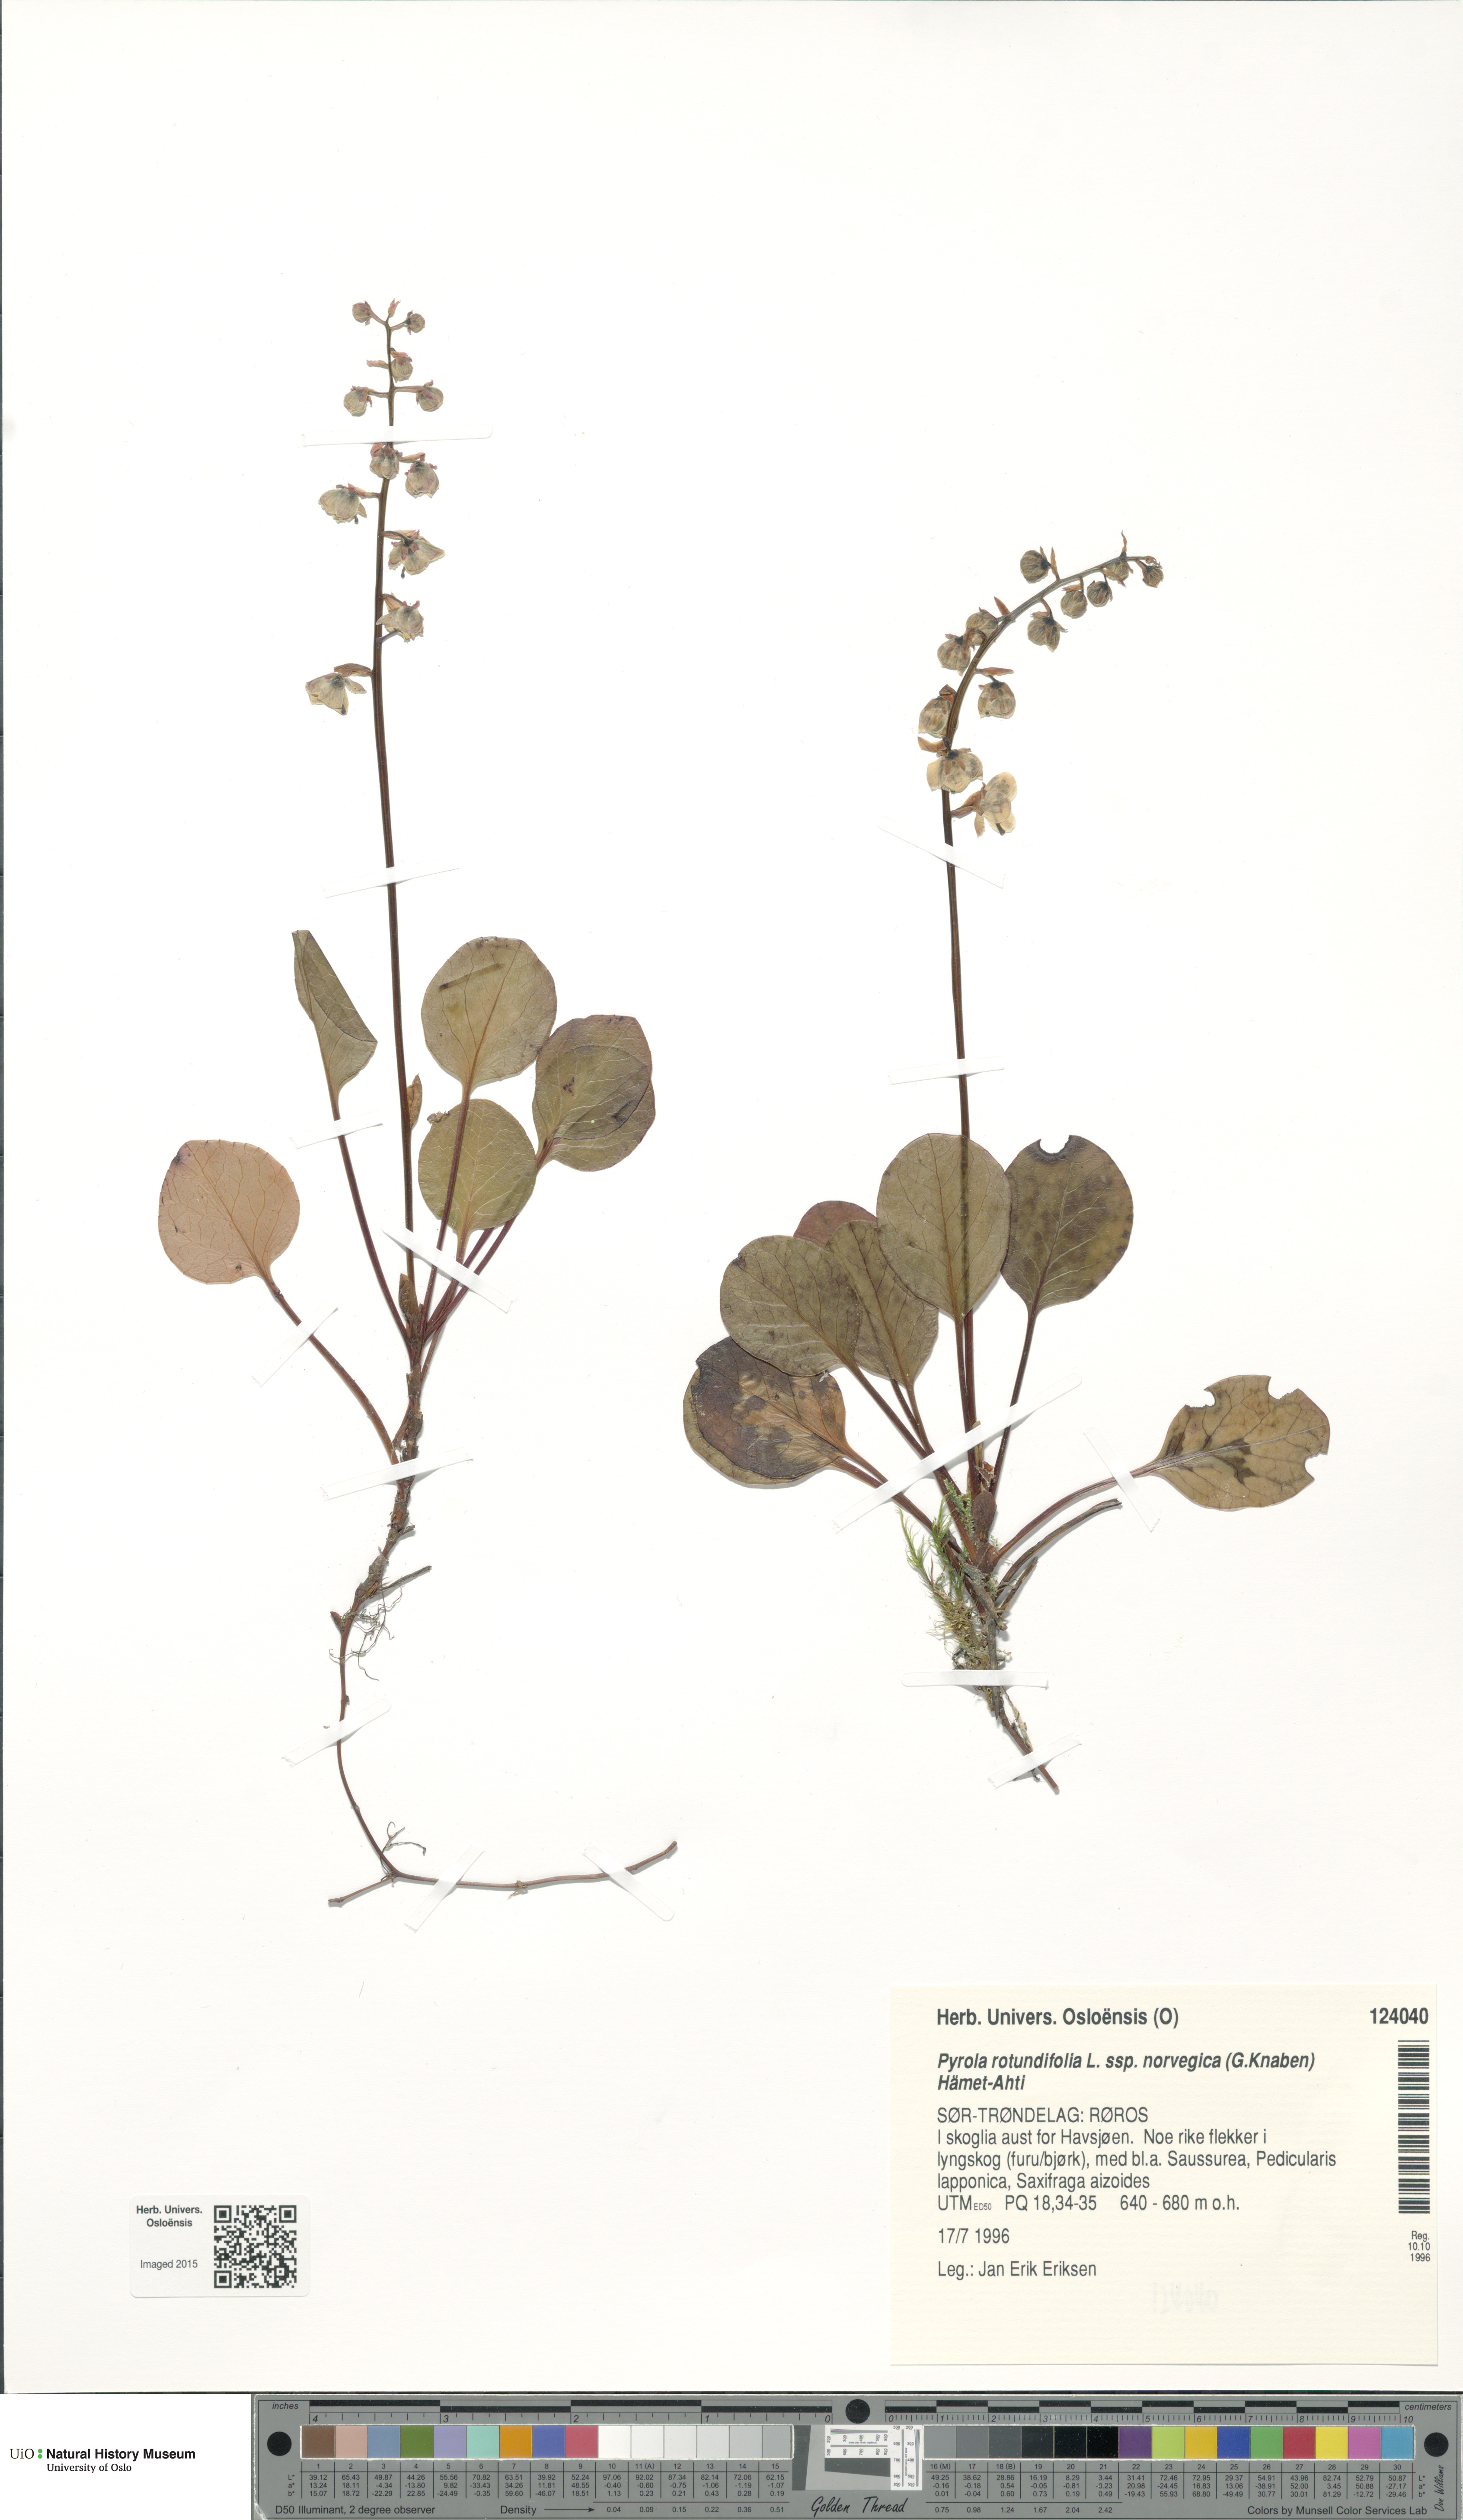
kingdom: Plantae
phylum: Tracheophyta
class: Magnoliopsida
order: Ericales
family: Ericaceae
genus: Pyrola
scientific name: Pyrola rotundifolia
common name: Round-leaved wintergreen
